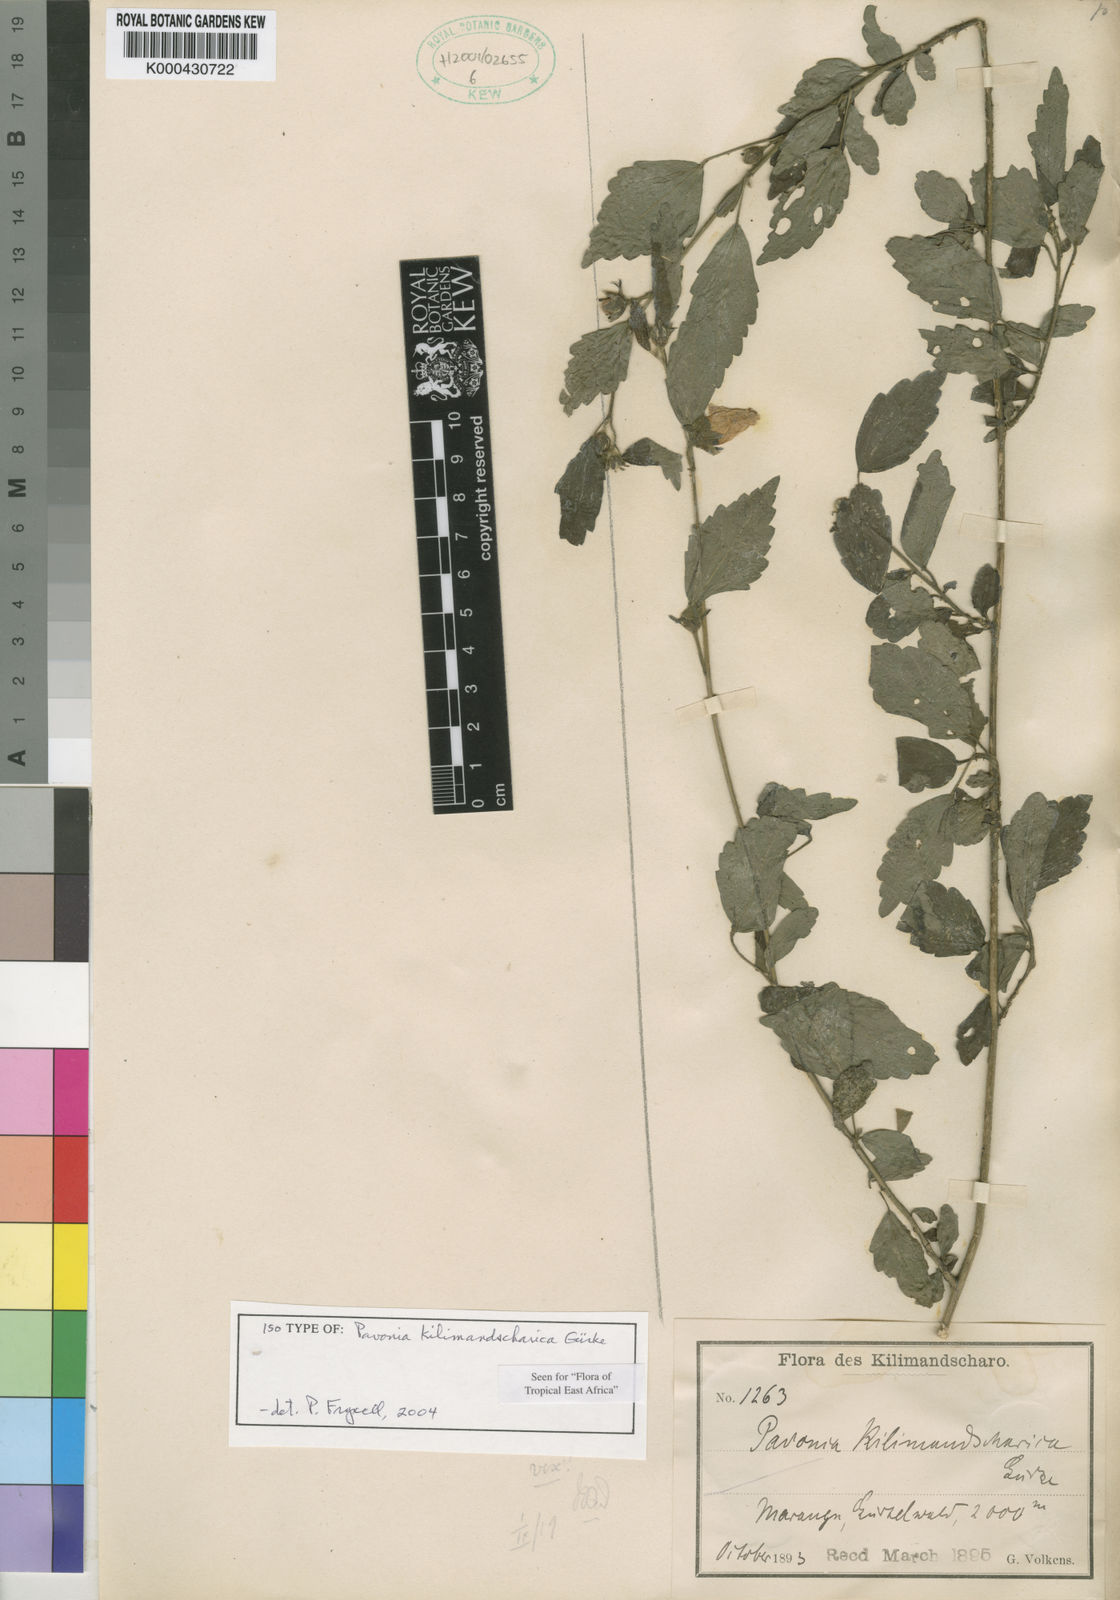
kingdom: Plantae
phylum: Tracheophyta
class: Magnoliopsida
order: Malvales
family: Malvaceae
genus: Pavonia
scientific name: Pavonia
